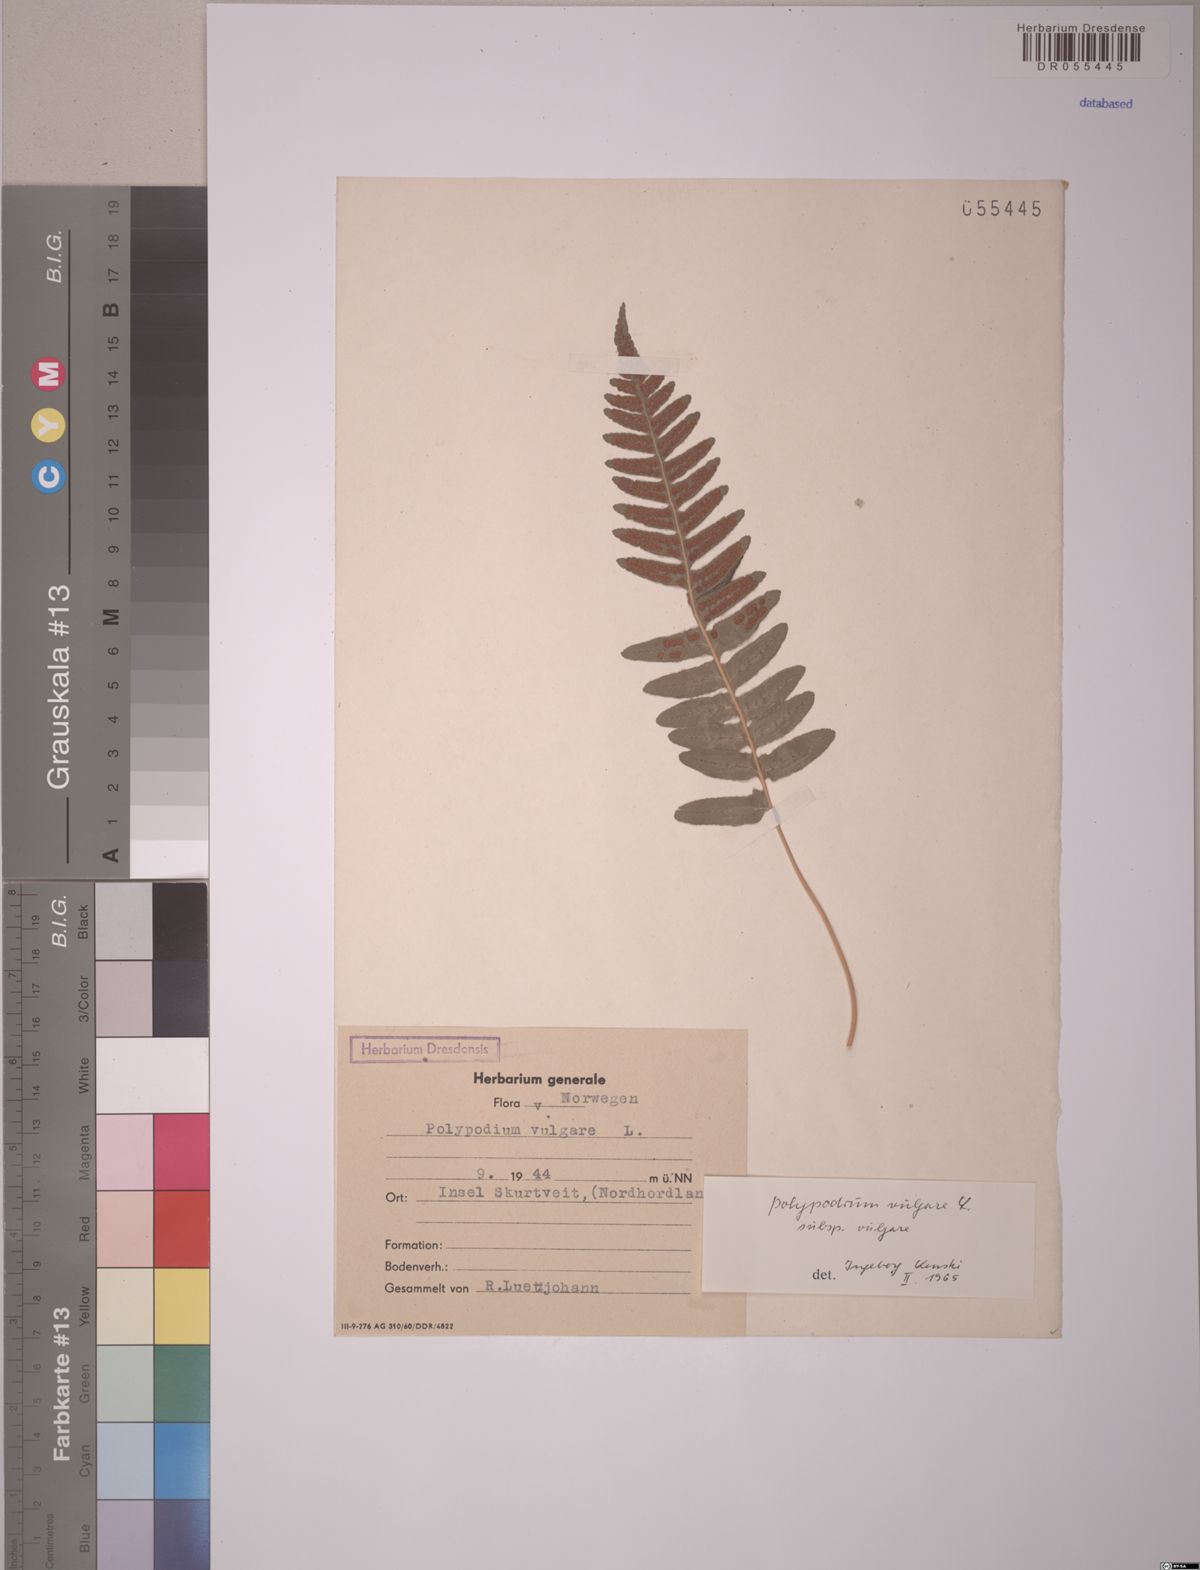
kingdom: Plantae
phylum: Tracheophyta
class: Polypodiopsida
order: Polypodiales
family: Polypodiaceae
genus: Polypodium
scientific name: Polypodium vulgare
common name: Common polypody
